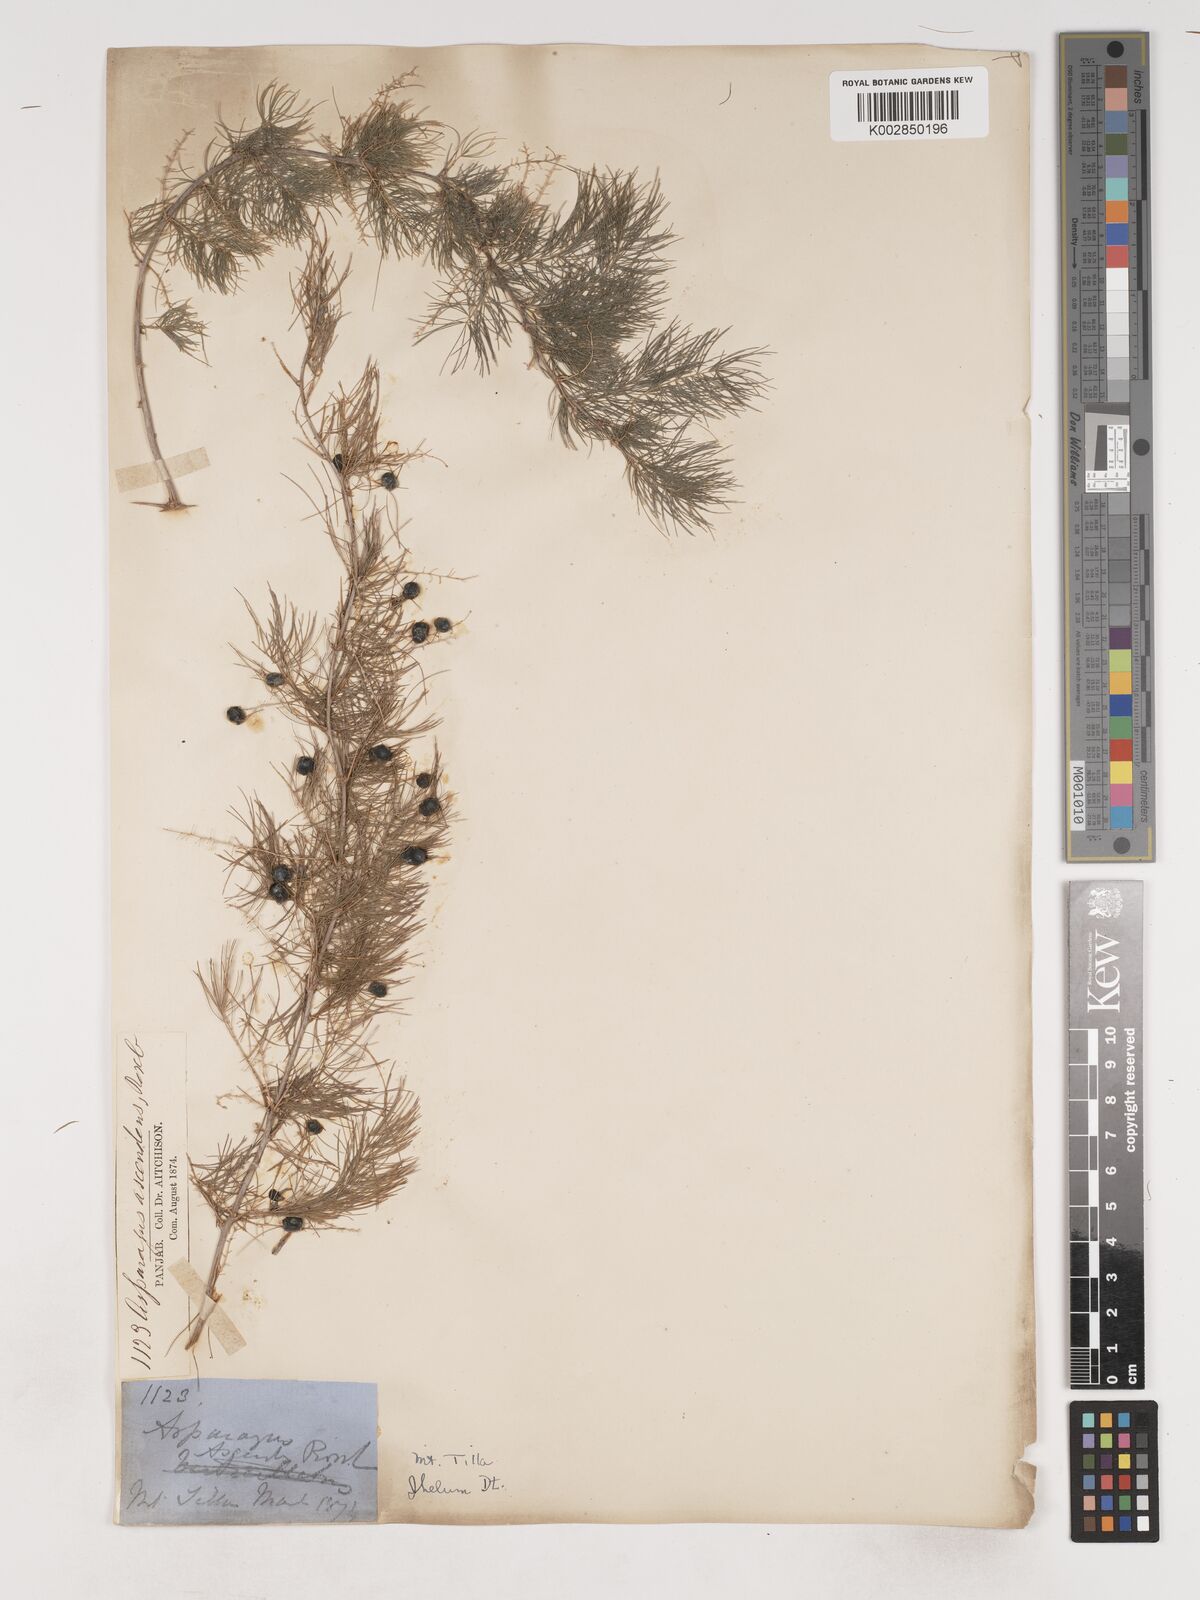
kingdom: Plantae
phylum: Tracheophyta
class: Liliopsida
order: Asparagales
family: Asparagaceae
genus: Asparagus
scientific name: Asparagus adscendens
